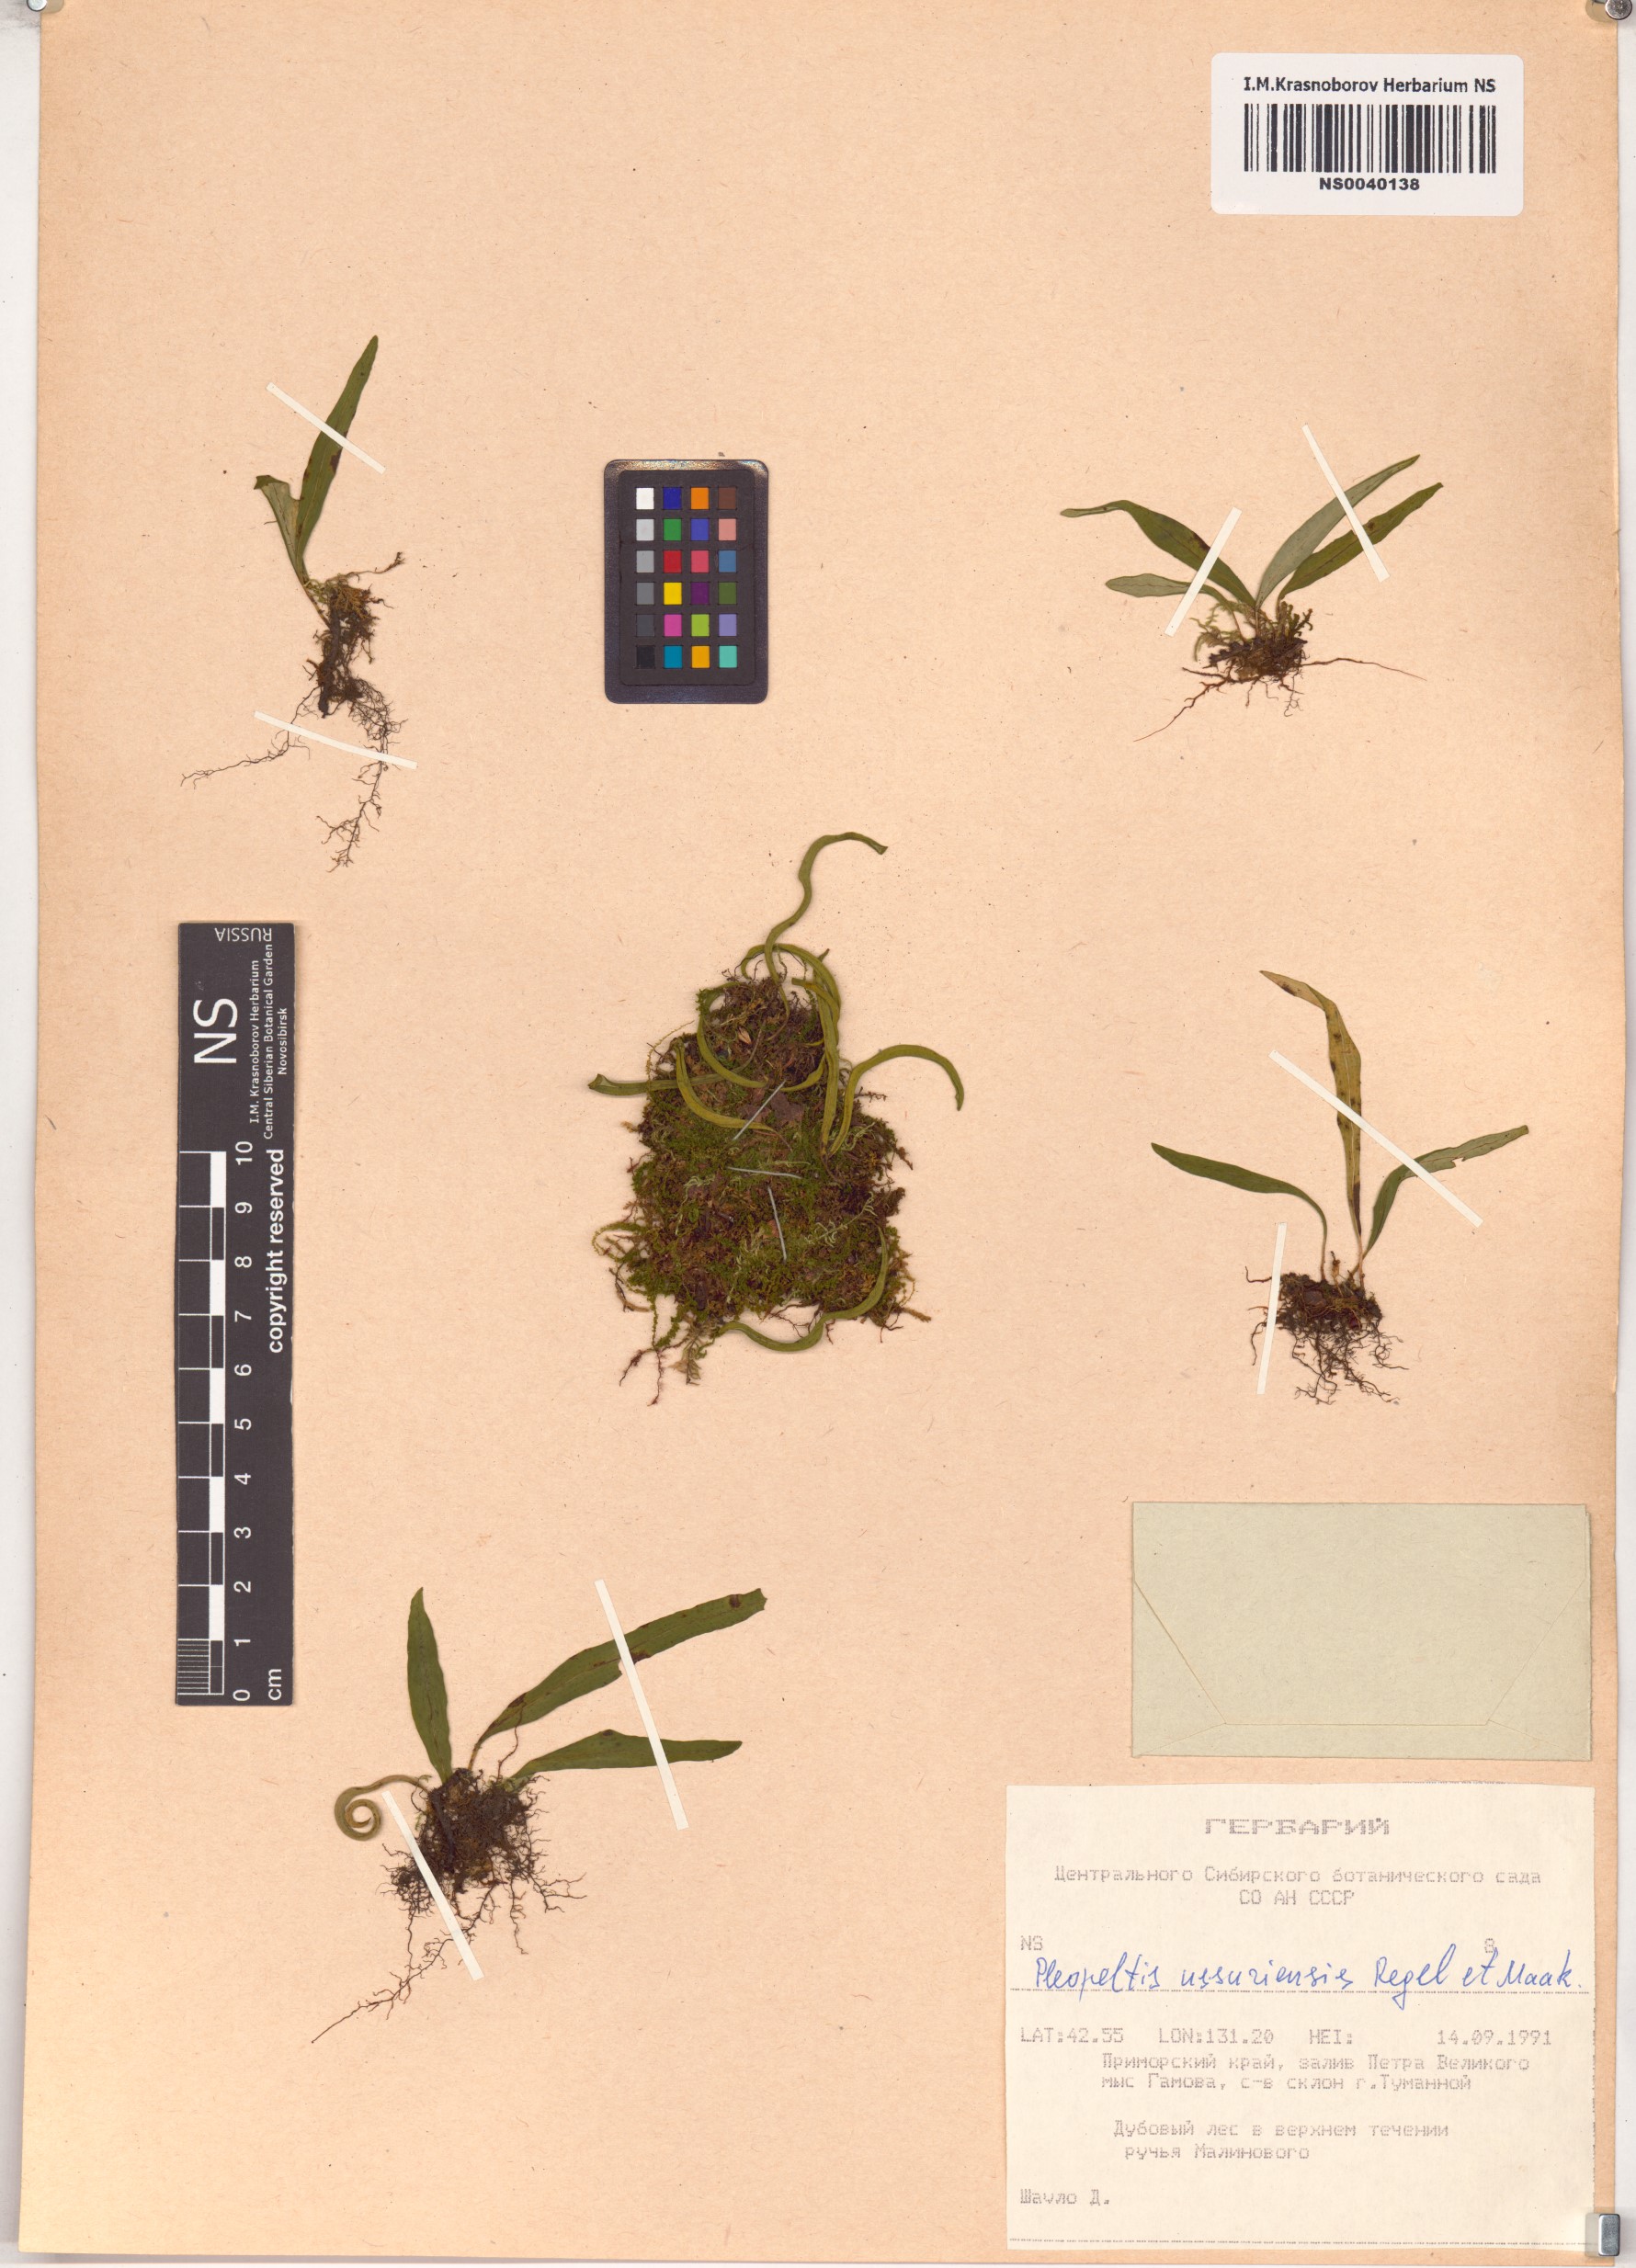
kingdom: Plantae
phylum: Tracheophyta
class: Polypodiopsida
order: Polypodiales
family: Polypodiaceae
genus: Lepisorus
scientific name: Lepisorus ussuriensis
